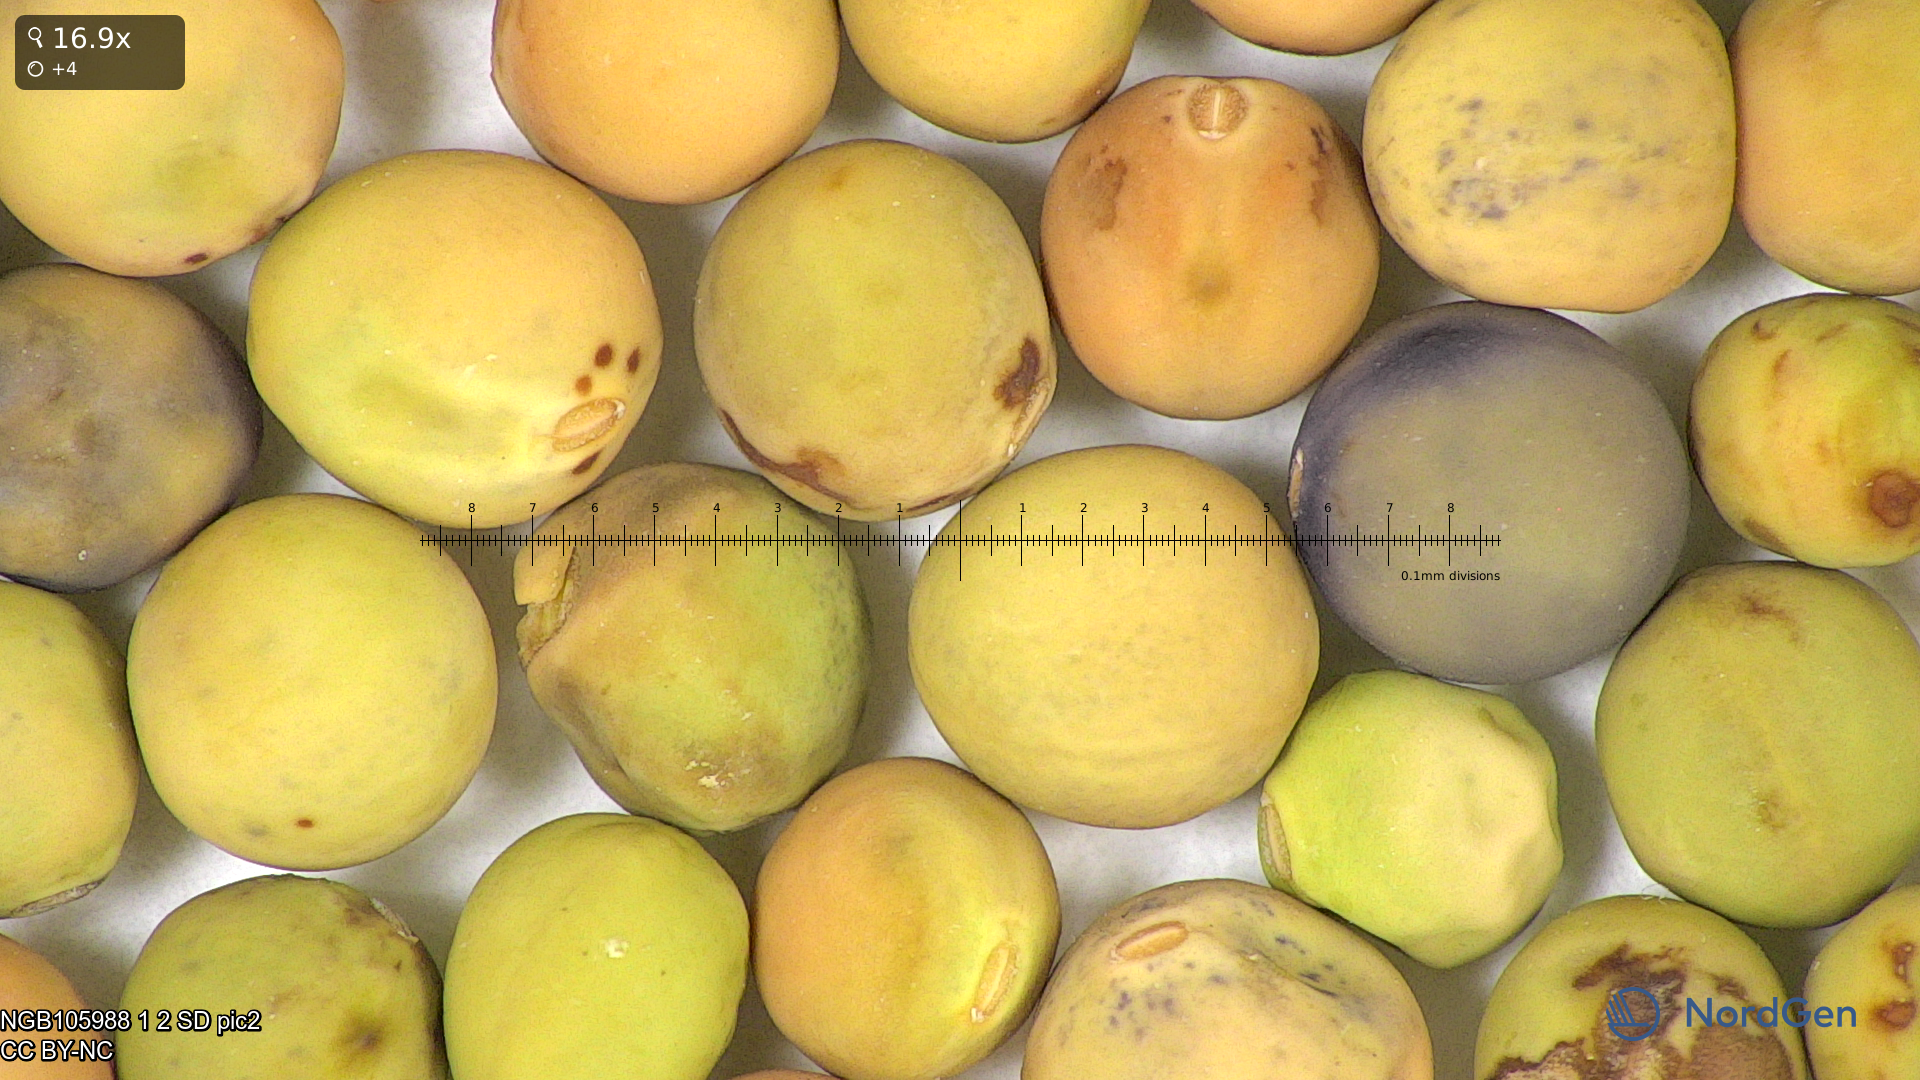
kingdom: Plantae
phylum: Tracheophyta
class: Magnoliopsida
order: Fabales
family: Fabaceae
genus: Lathyrus
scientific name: Lathyrus oleraceus
